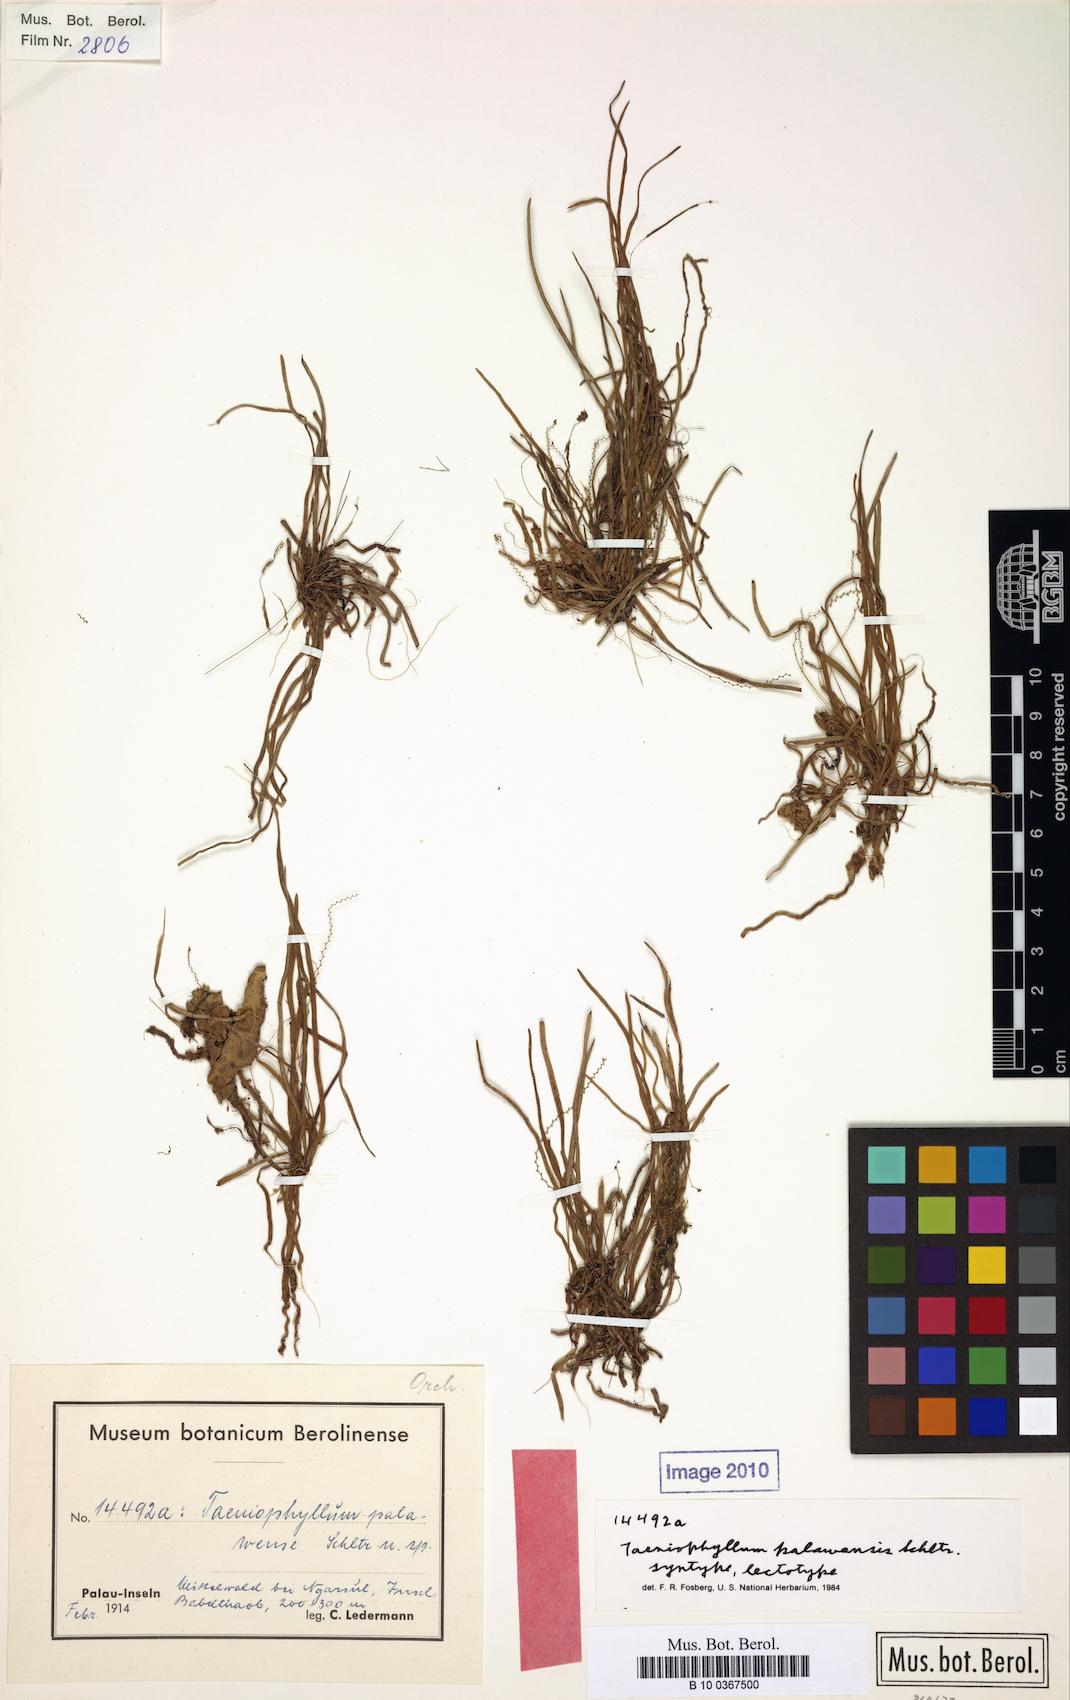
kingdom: Plantae
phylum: Tracheophyta
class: Liliopsida
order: Asparagales
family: Orchidaceae
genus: Taeniophyllum
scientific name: Taeniophyllum palawense
